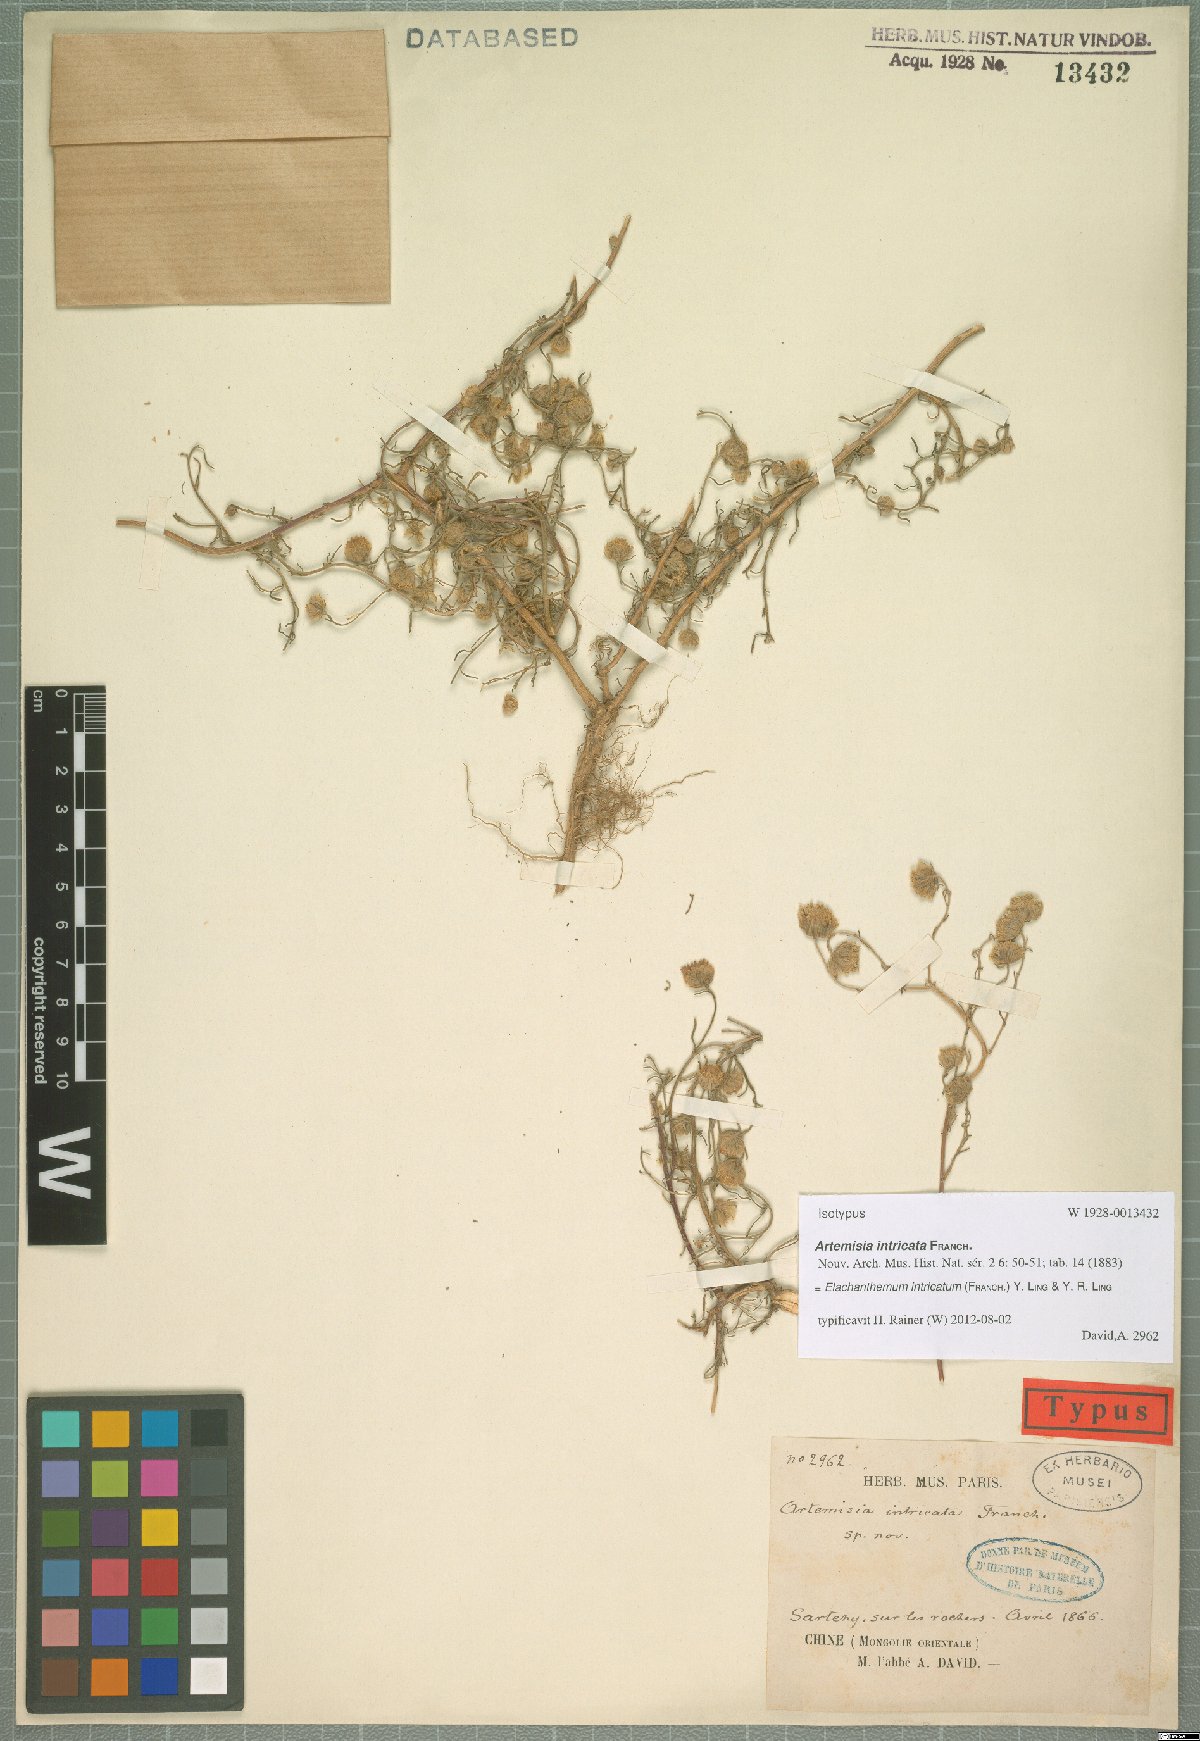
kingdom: Plantae
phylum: Tracheophyta
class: Magnoliopsida
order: Asterales
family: Asteraceae
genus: Elachanthemum
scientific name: Elachanthemum intricatum
